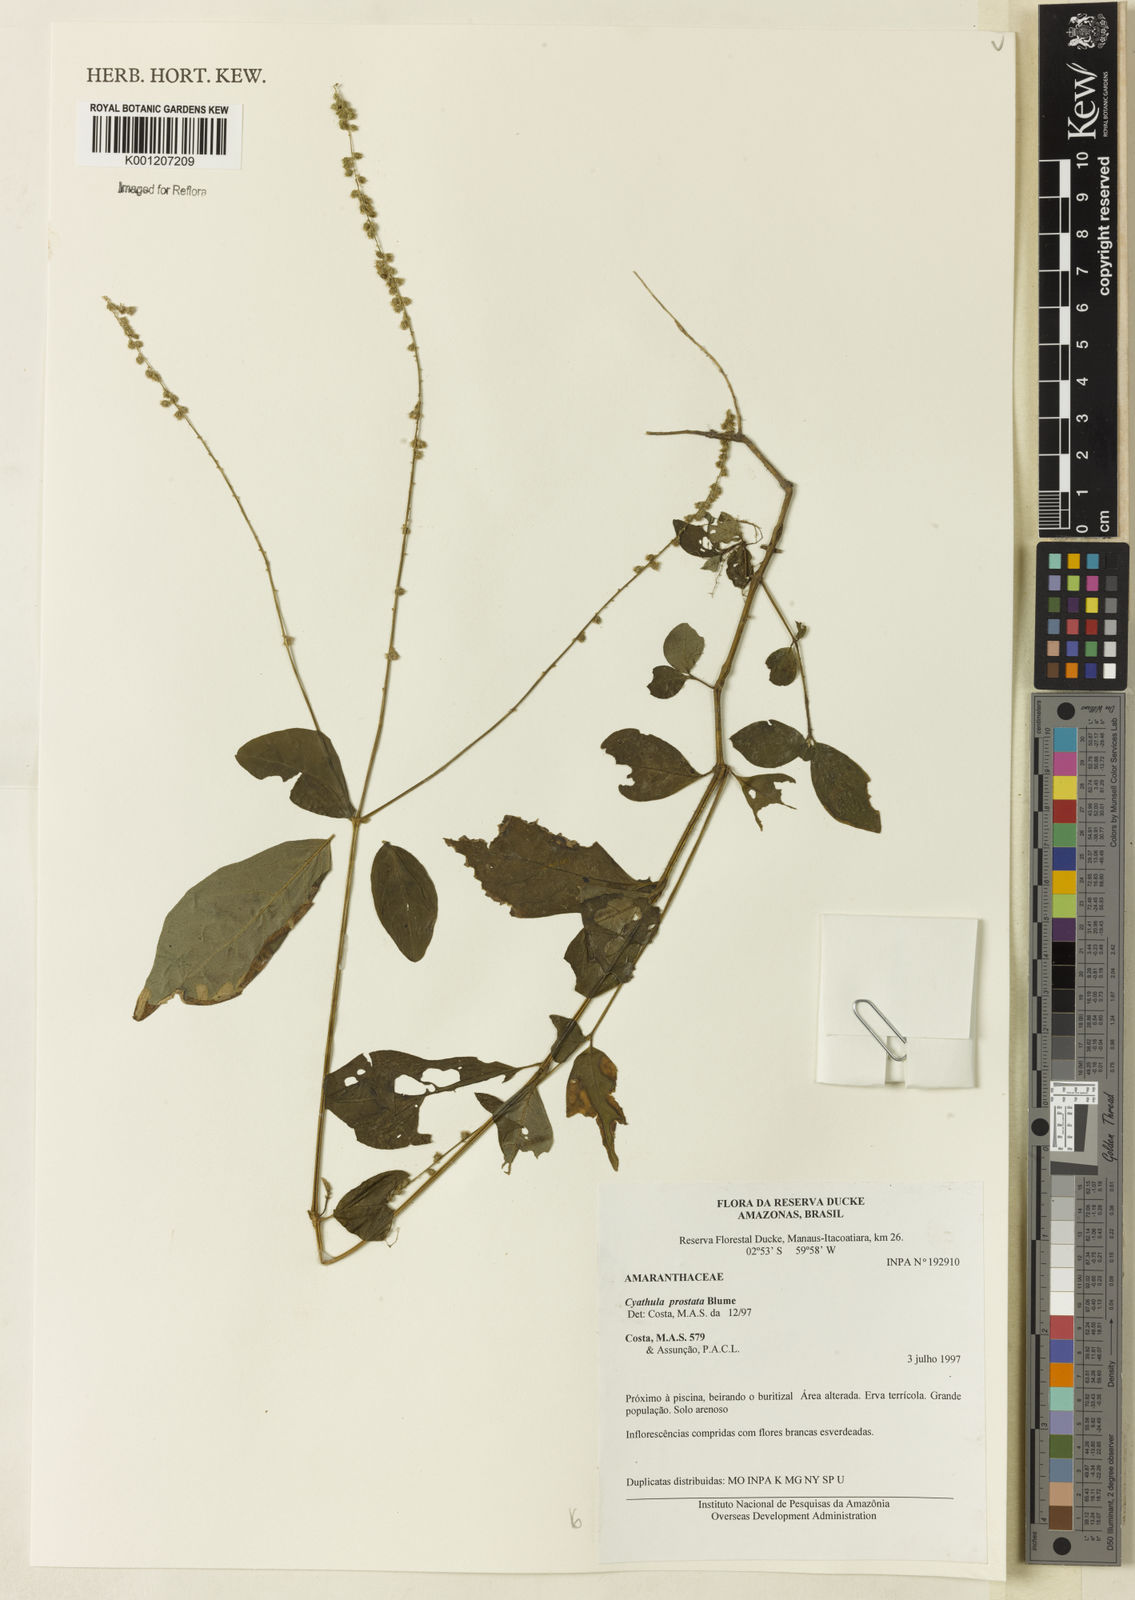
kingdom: Plantae
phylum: Tracheophyta
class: Magnoliopsida
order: Caryophyllales
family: Amaranthaceae
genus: Cyathula
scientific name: Cyathula prostrata
